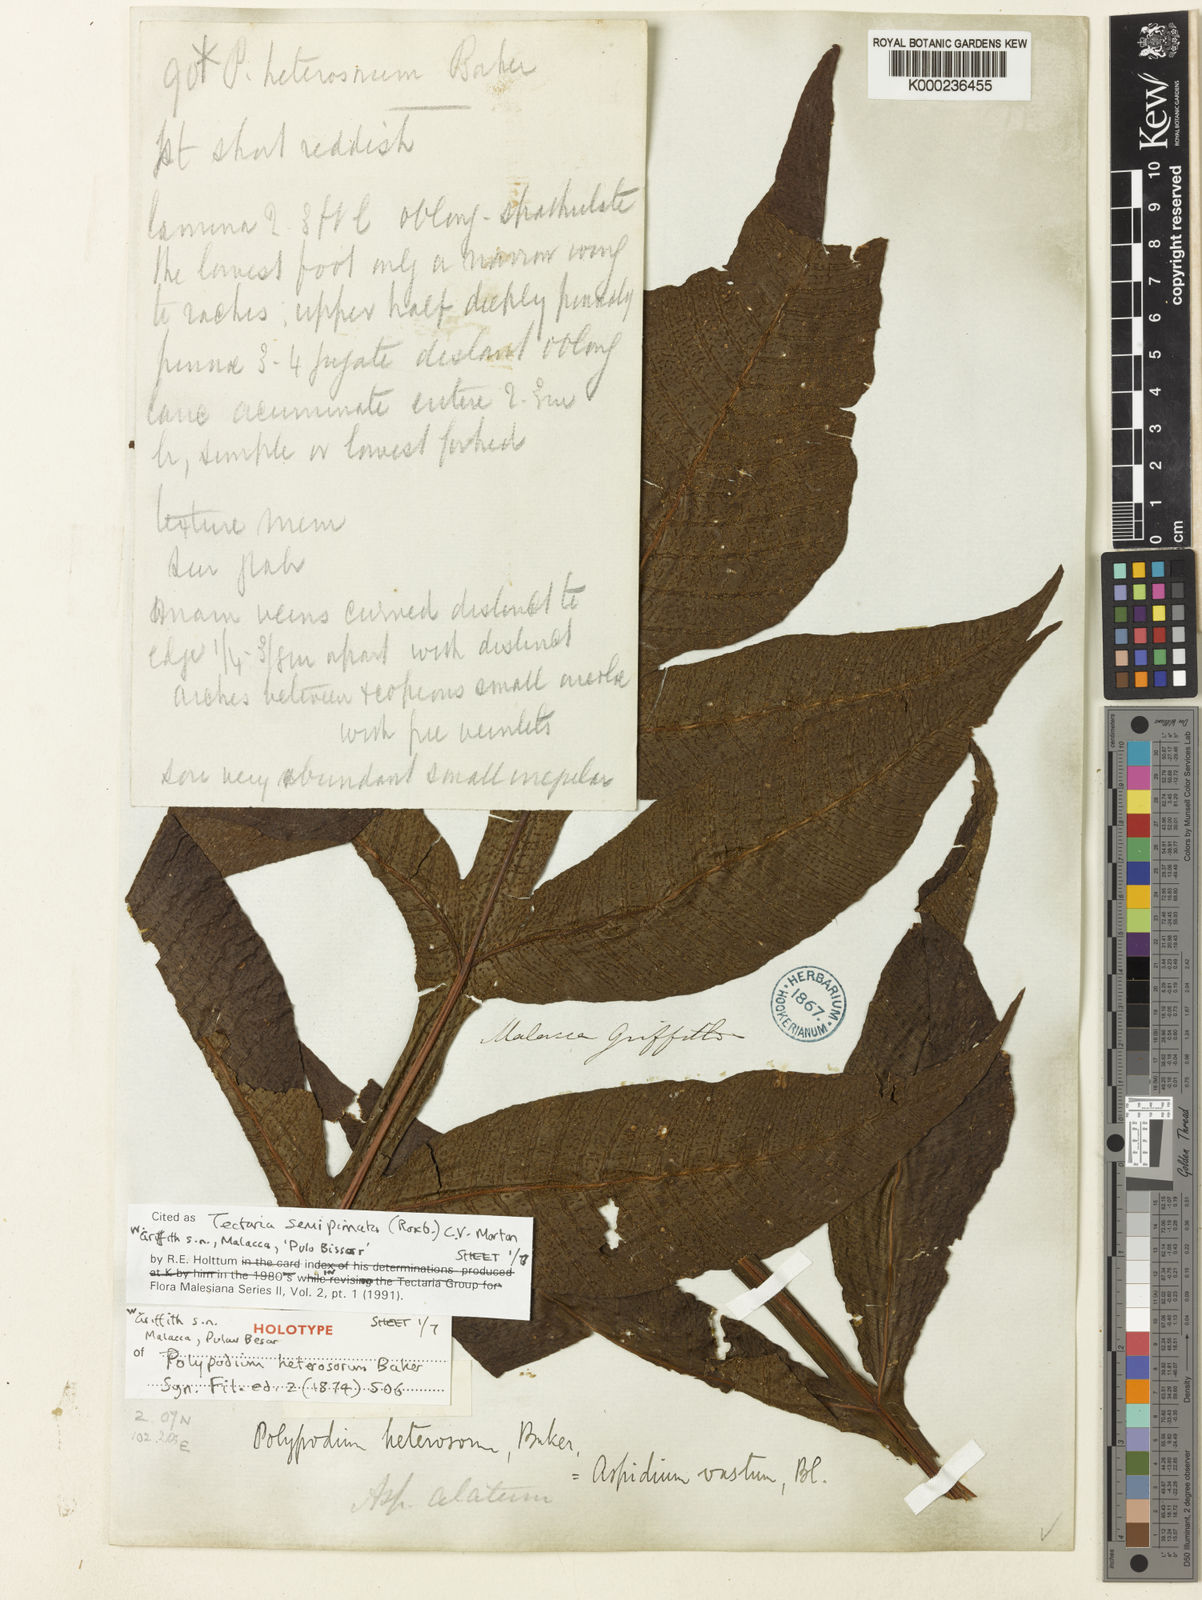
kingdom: Plantae
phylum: Tracheophyta
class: Polypodiopsida
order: Polypodiales
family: Tectariaceae
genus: Tectaria
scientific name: Tectaria semipinnata
